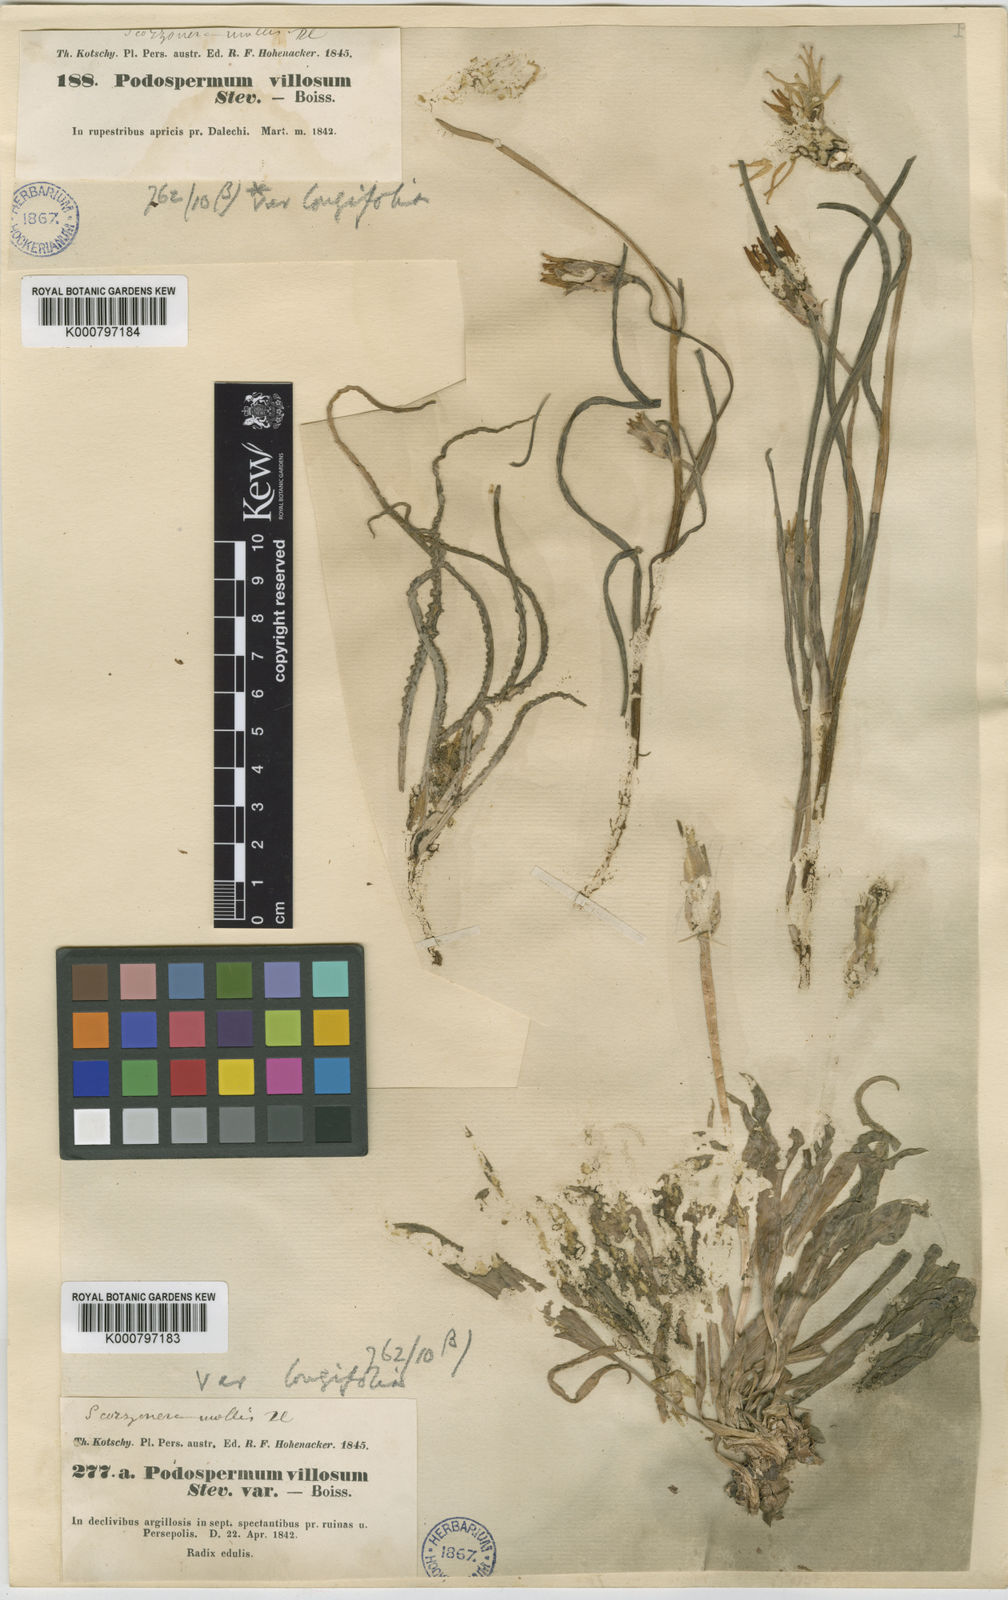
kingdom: Plantae
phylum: Tracheophyta
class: Magnoliopsida
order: Asterales
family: Asteraceae
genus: Candollea
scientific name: Candollea mollis
